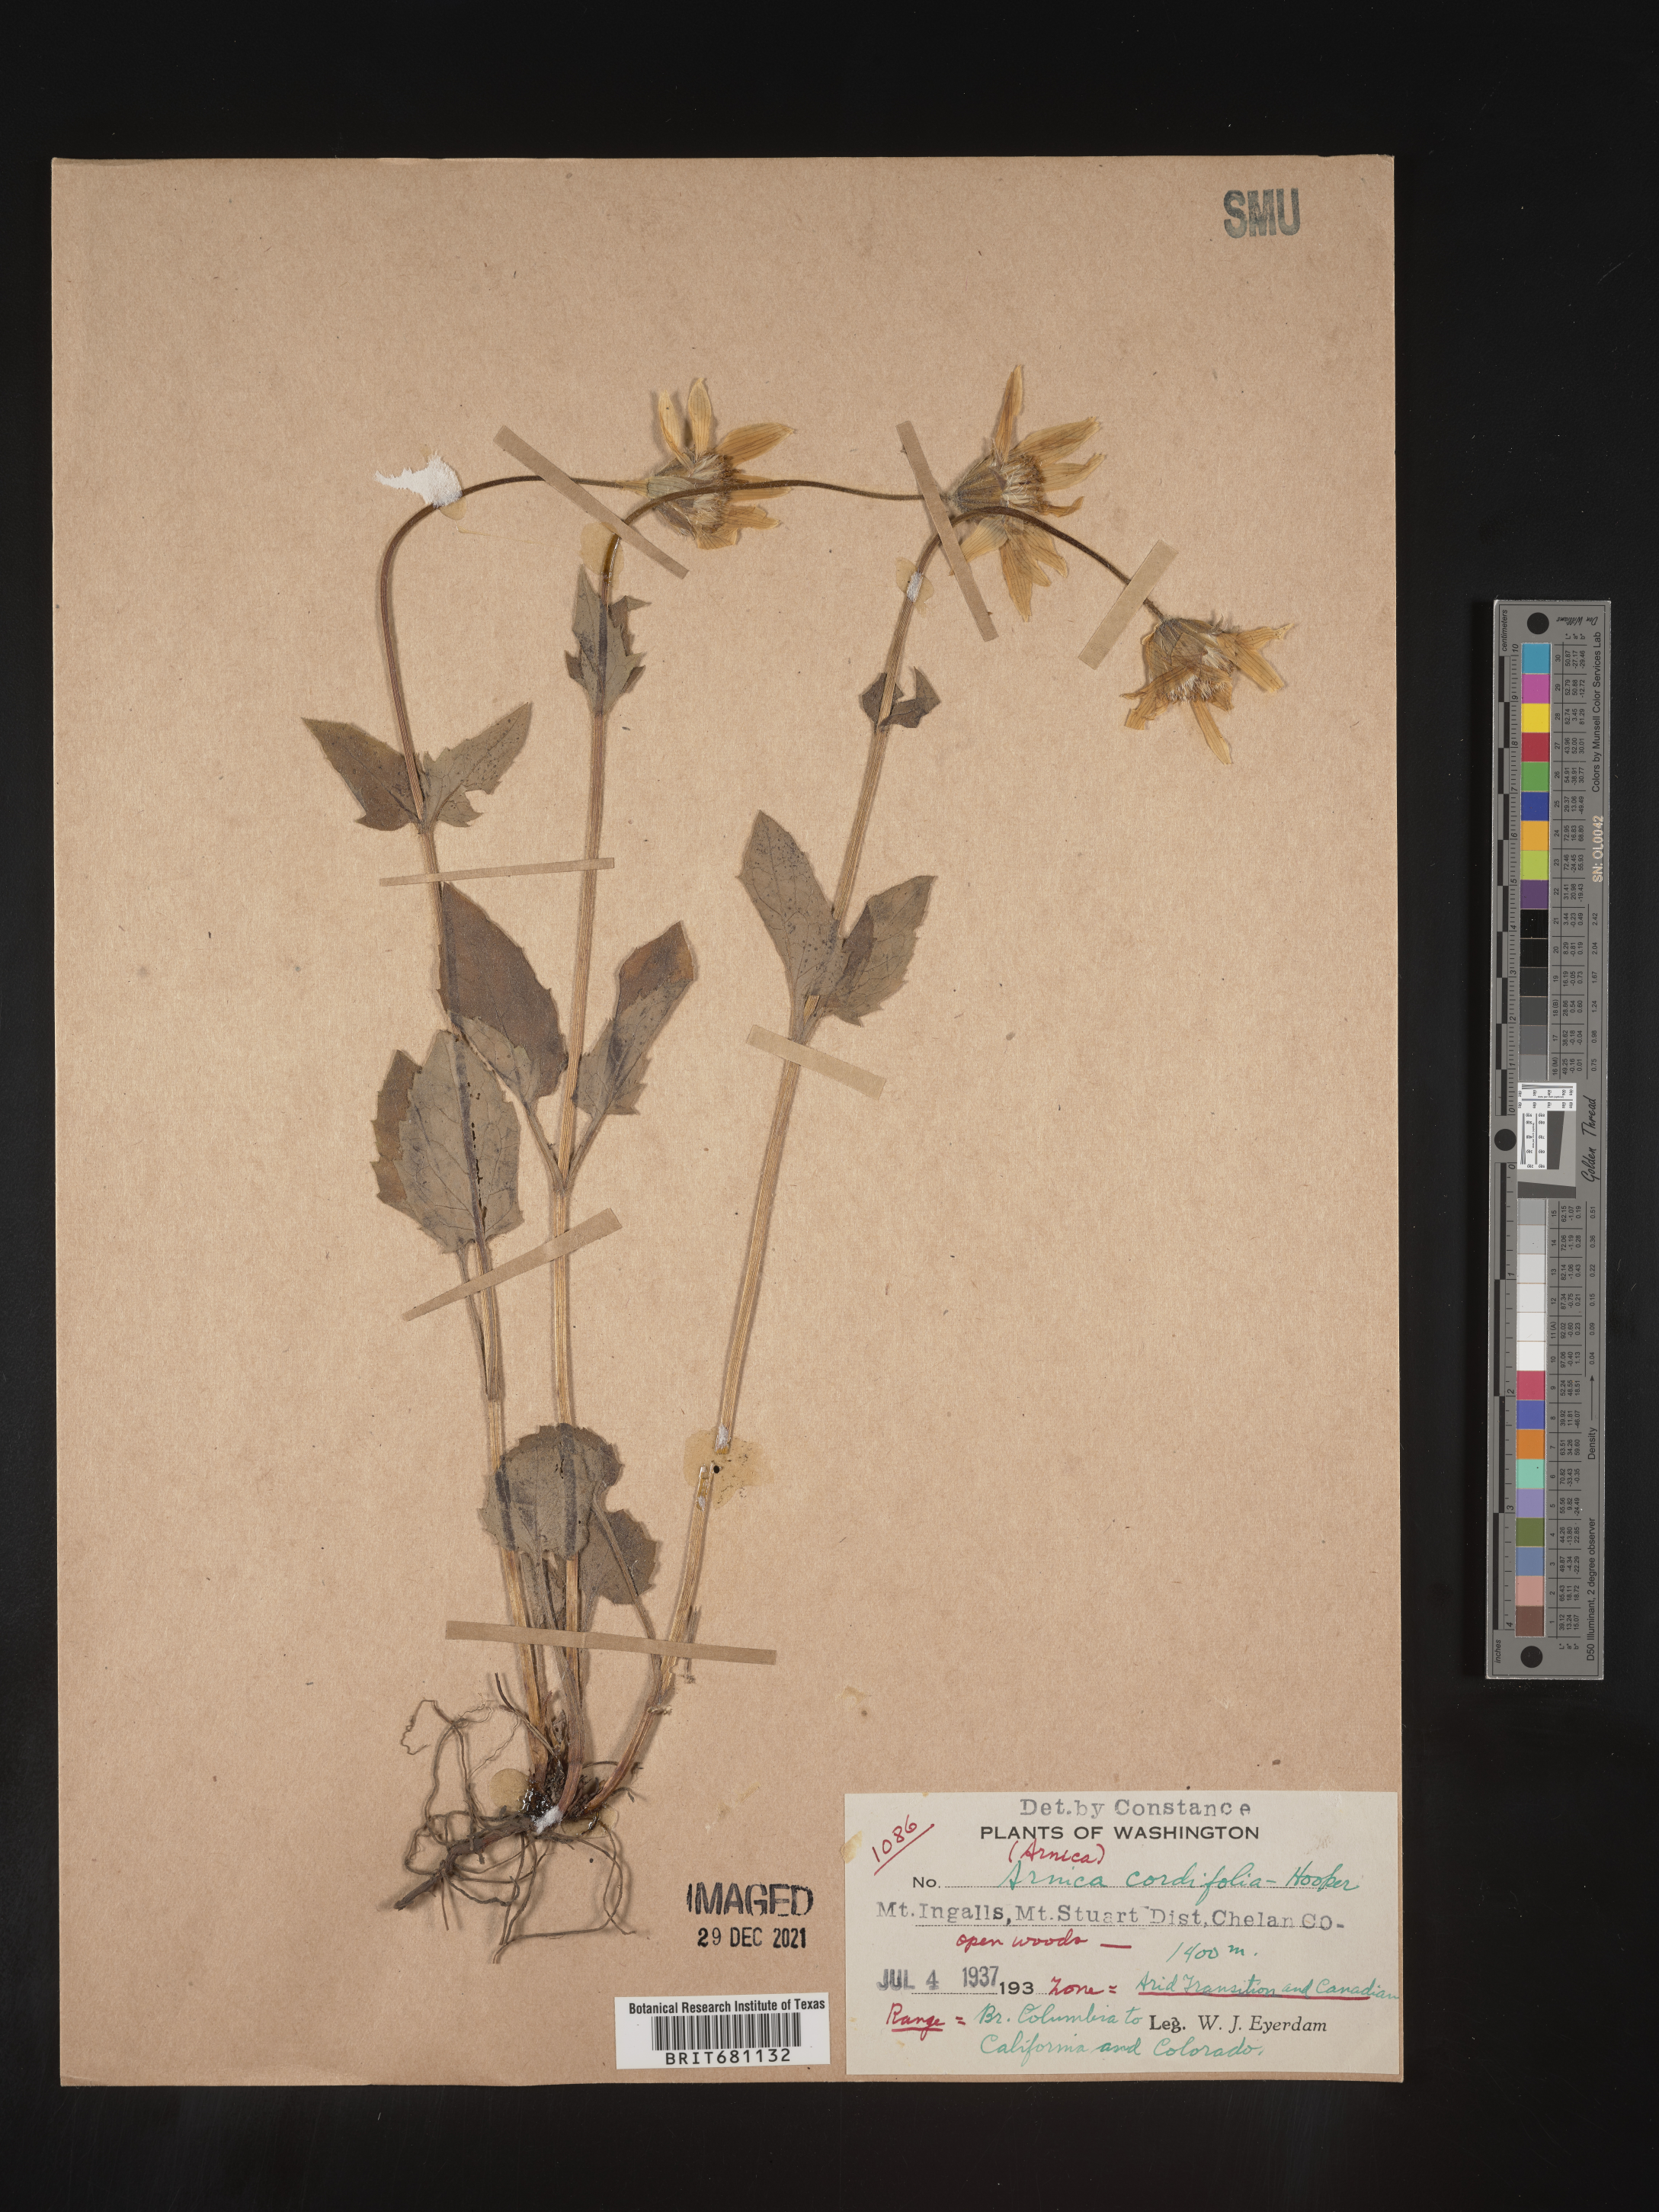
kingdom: Plantae
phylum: Tracheophyta
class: Magnoliopsida
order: Asterales
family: Asteraceae
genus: Arnica
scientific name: Arnica cordifolia
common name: Heart-leaf arnica
